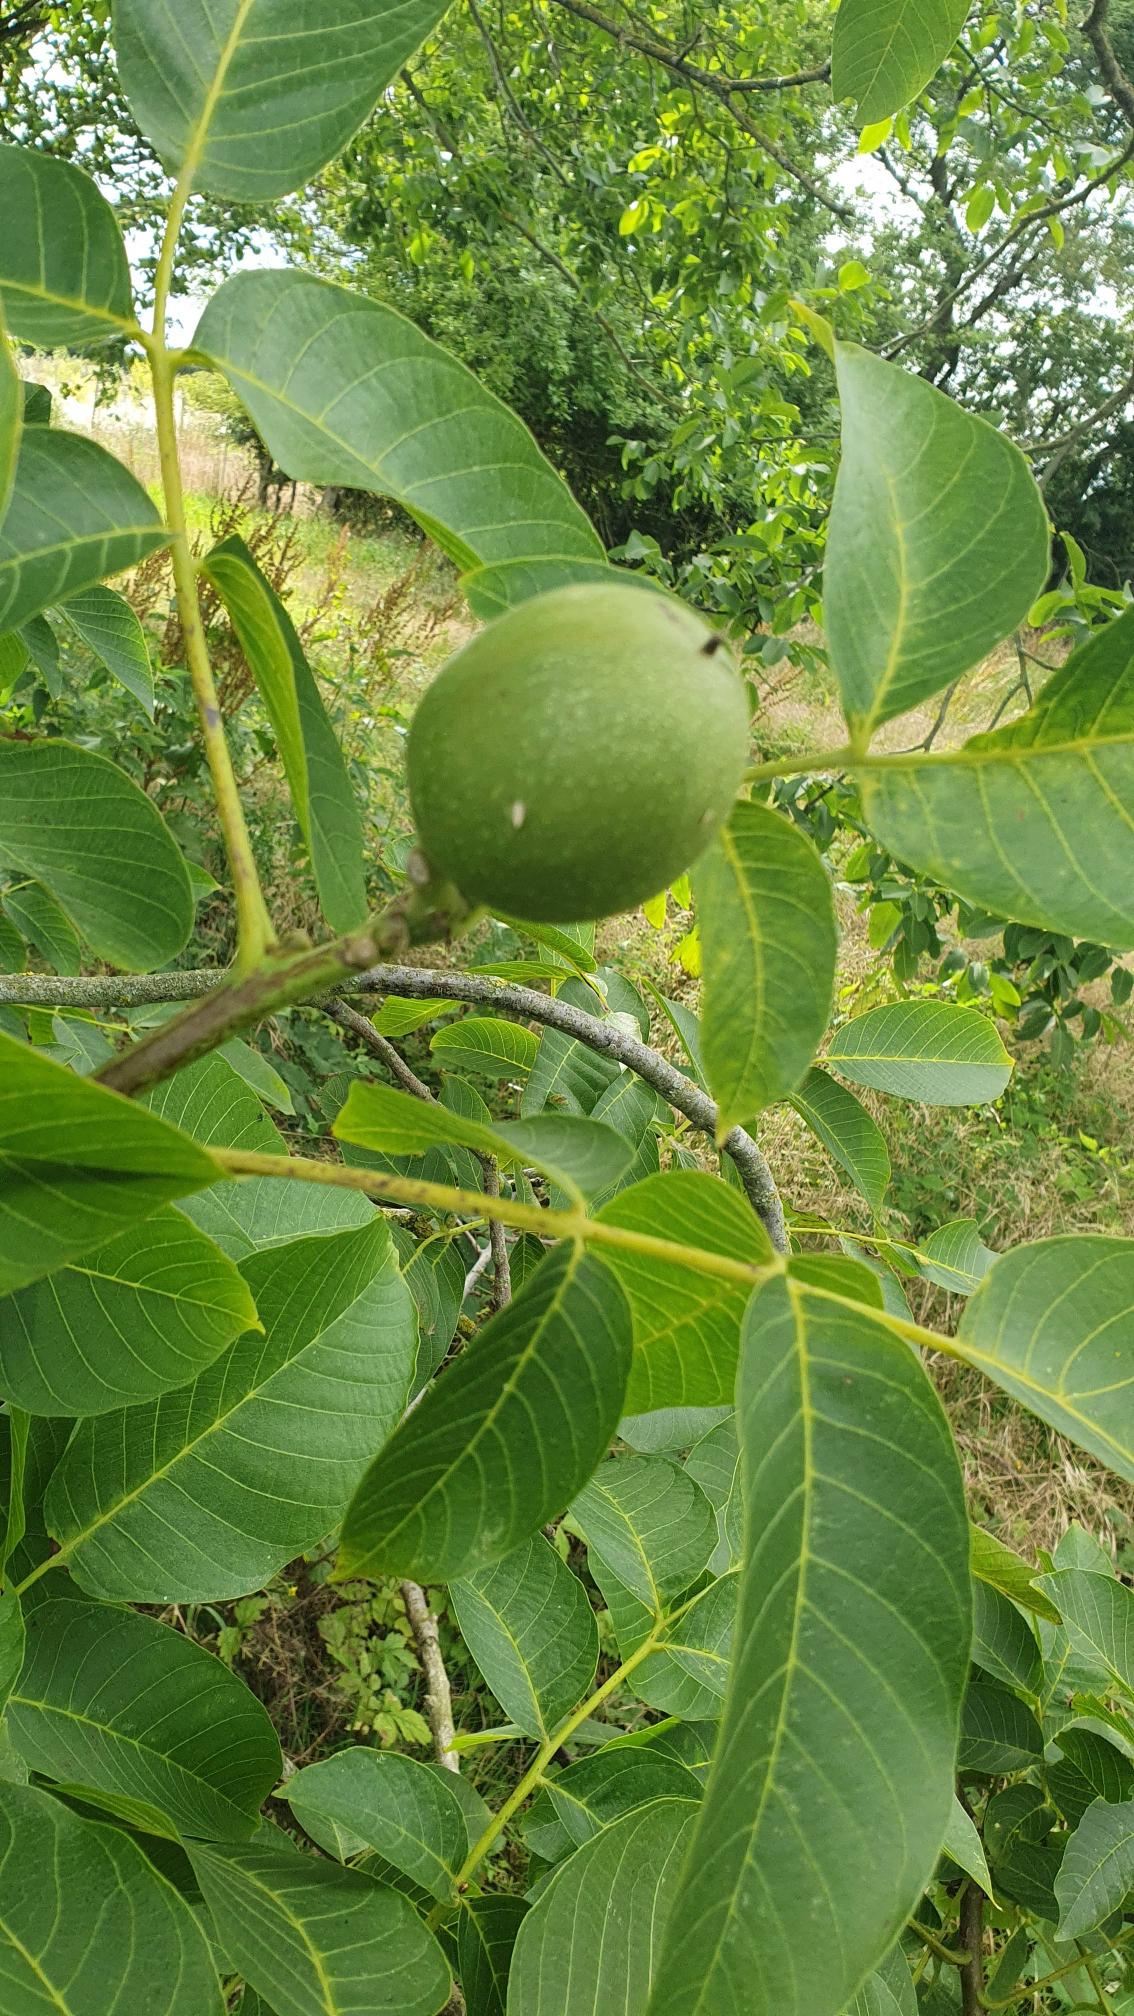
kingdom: Plantae
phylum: Tracheophyta
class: Magnoliopsida
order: Fagales
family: Juglandaceae
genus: Juglans
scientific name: Juglans regia
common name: Almindelig valnød
